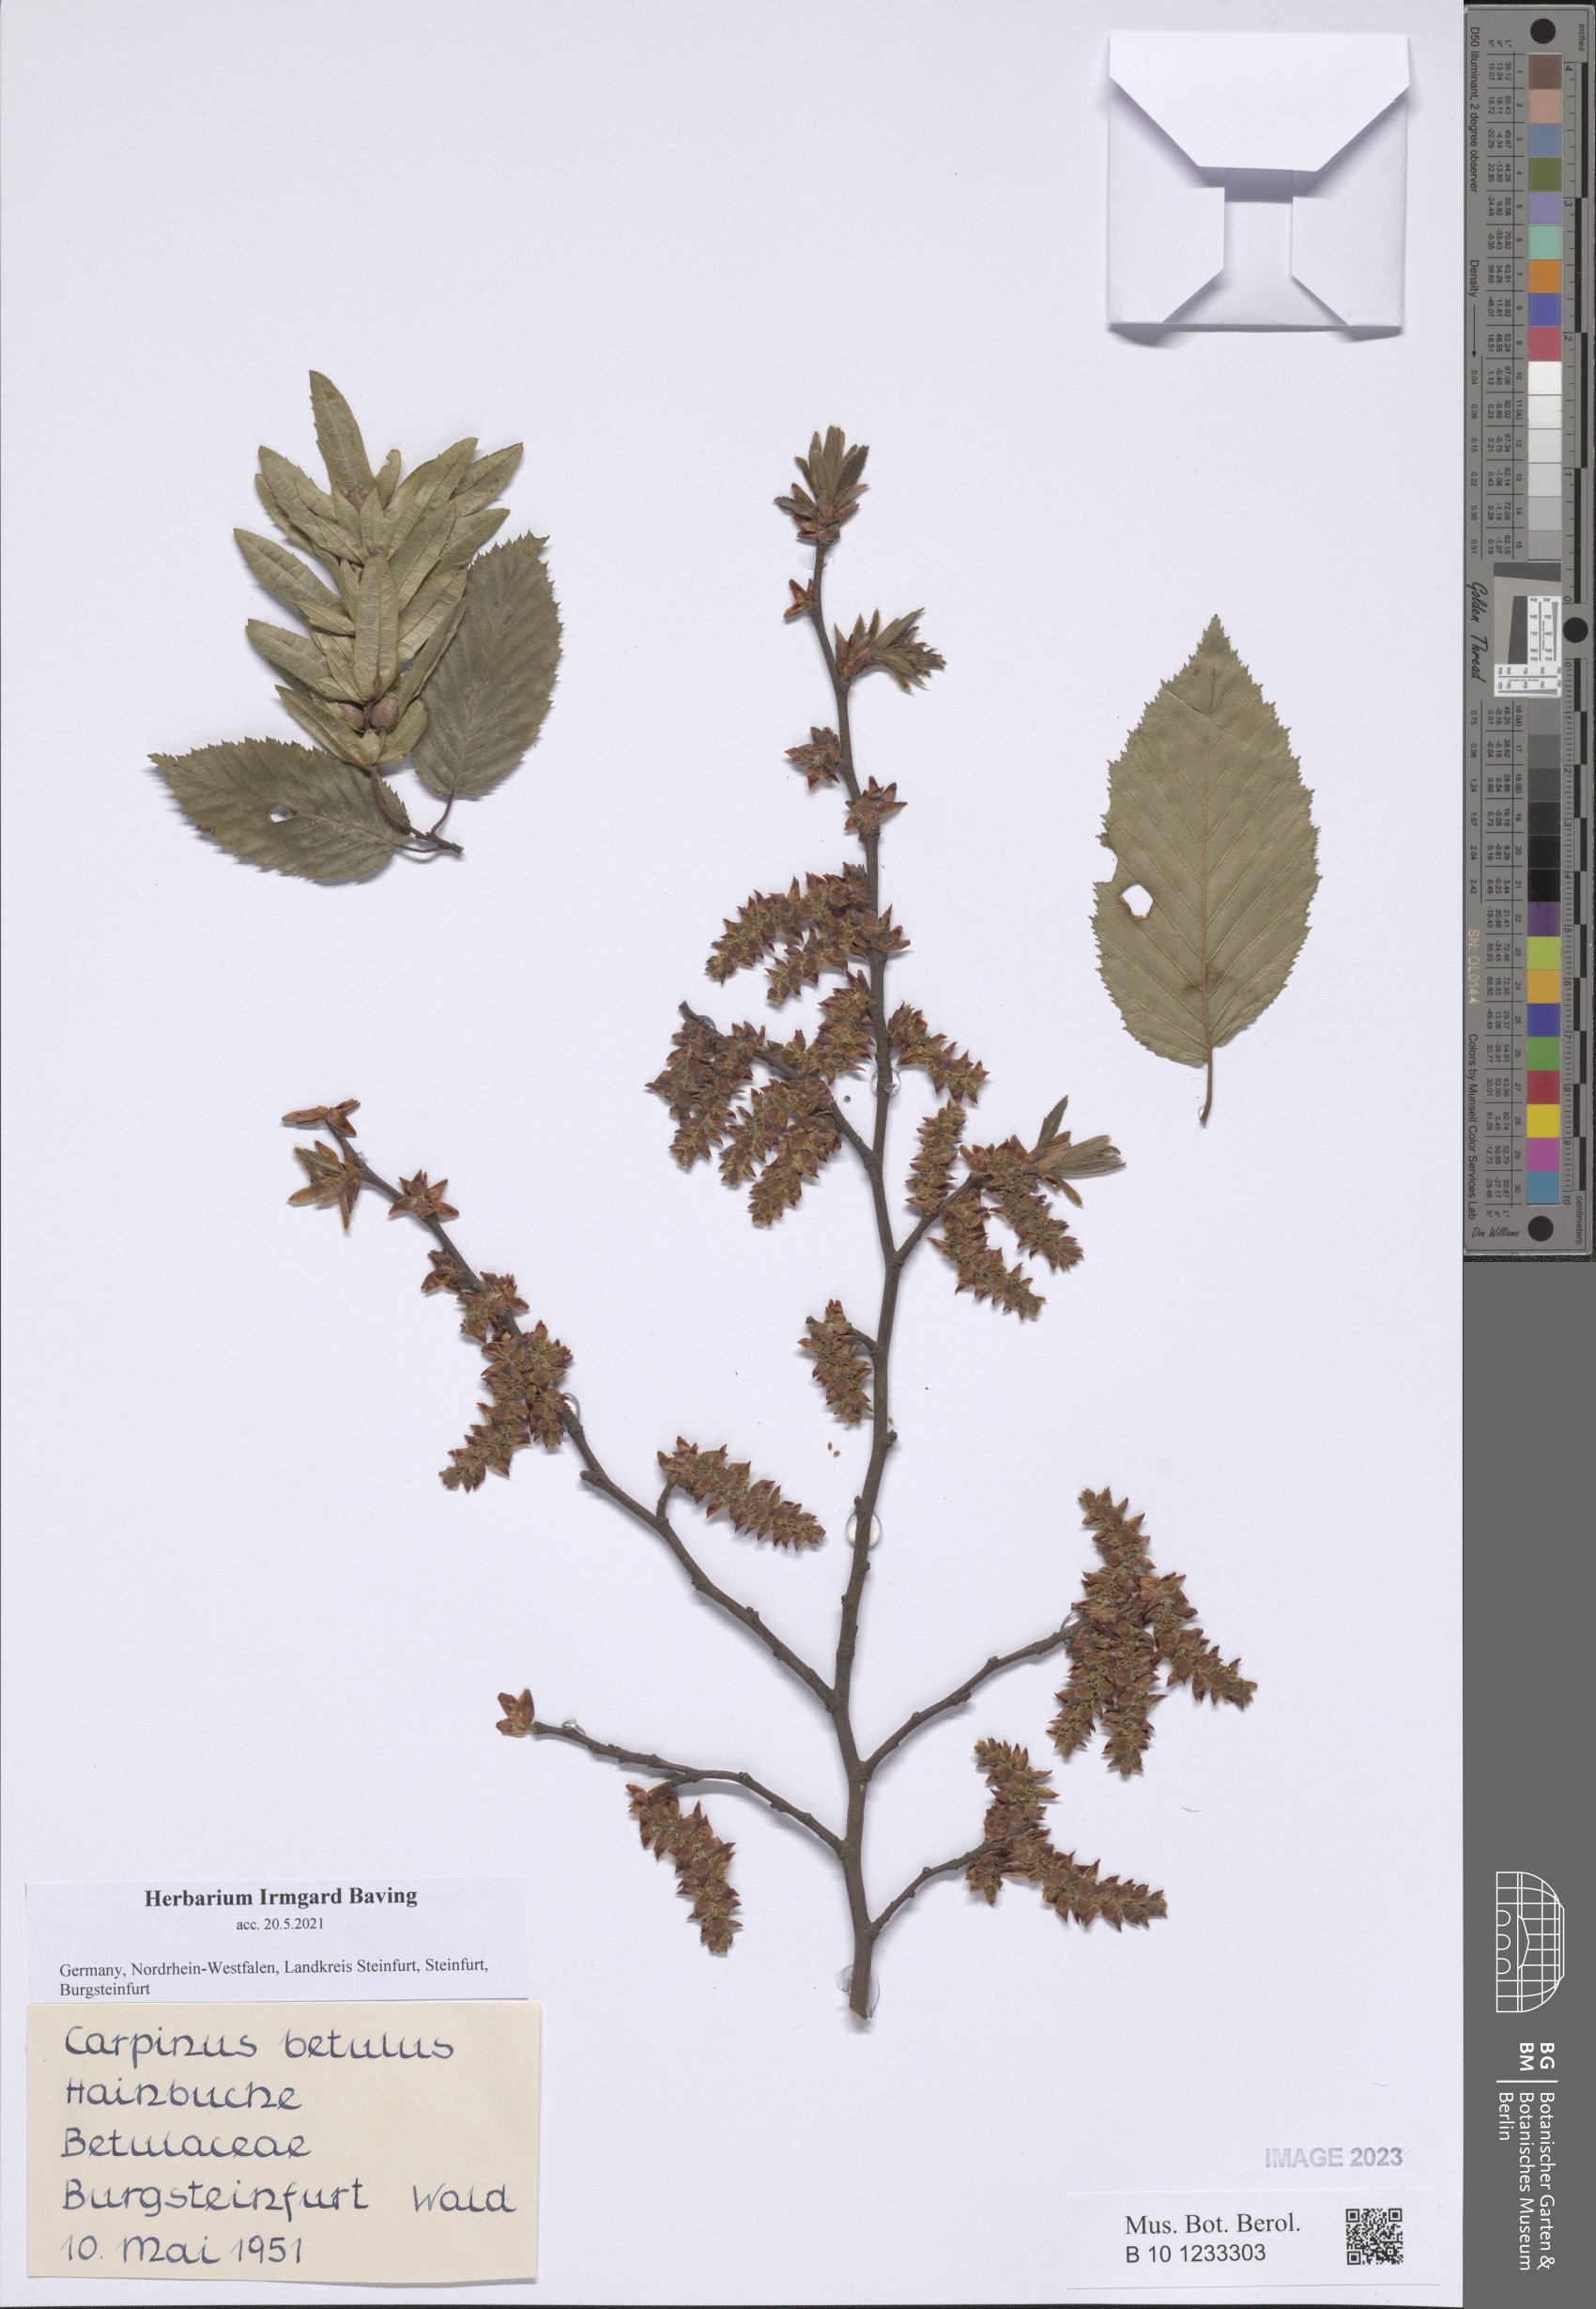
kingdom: Plantae
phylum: Tracheophyta
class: Magnoliopsida
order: Fagales
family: Betulaceae
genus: Carpinus
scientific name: Carpinus betulus
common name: Hornbeam
